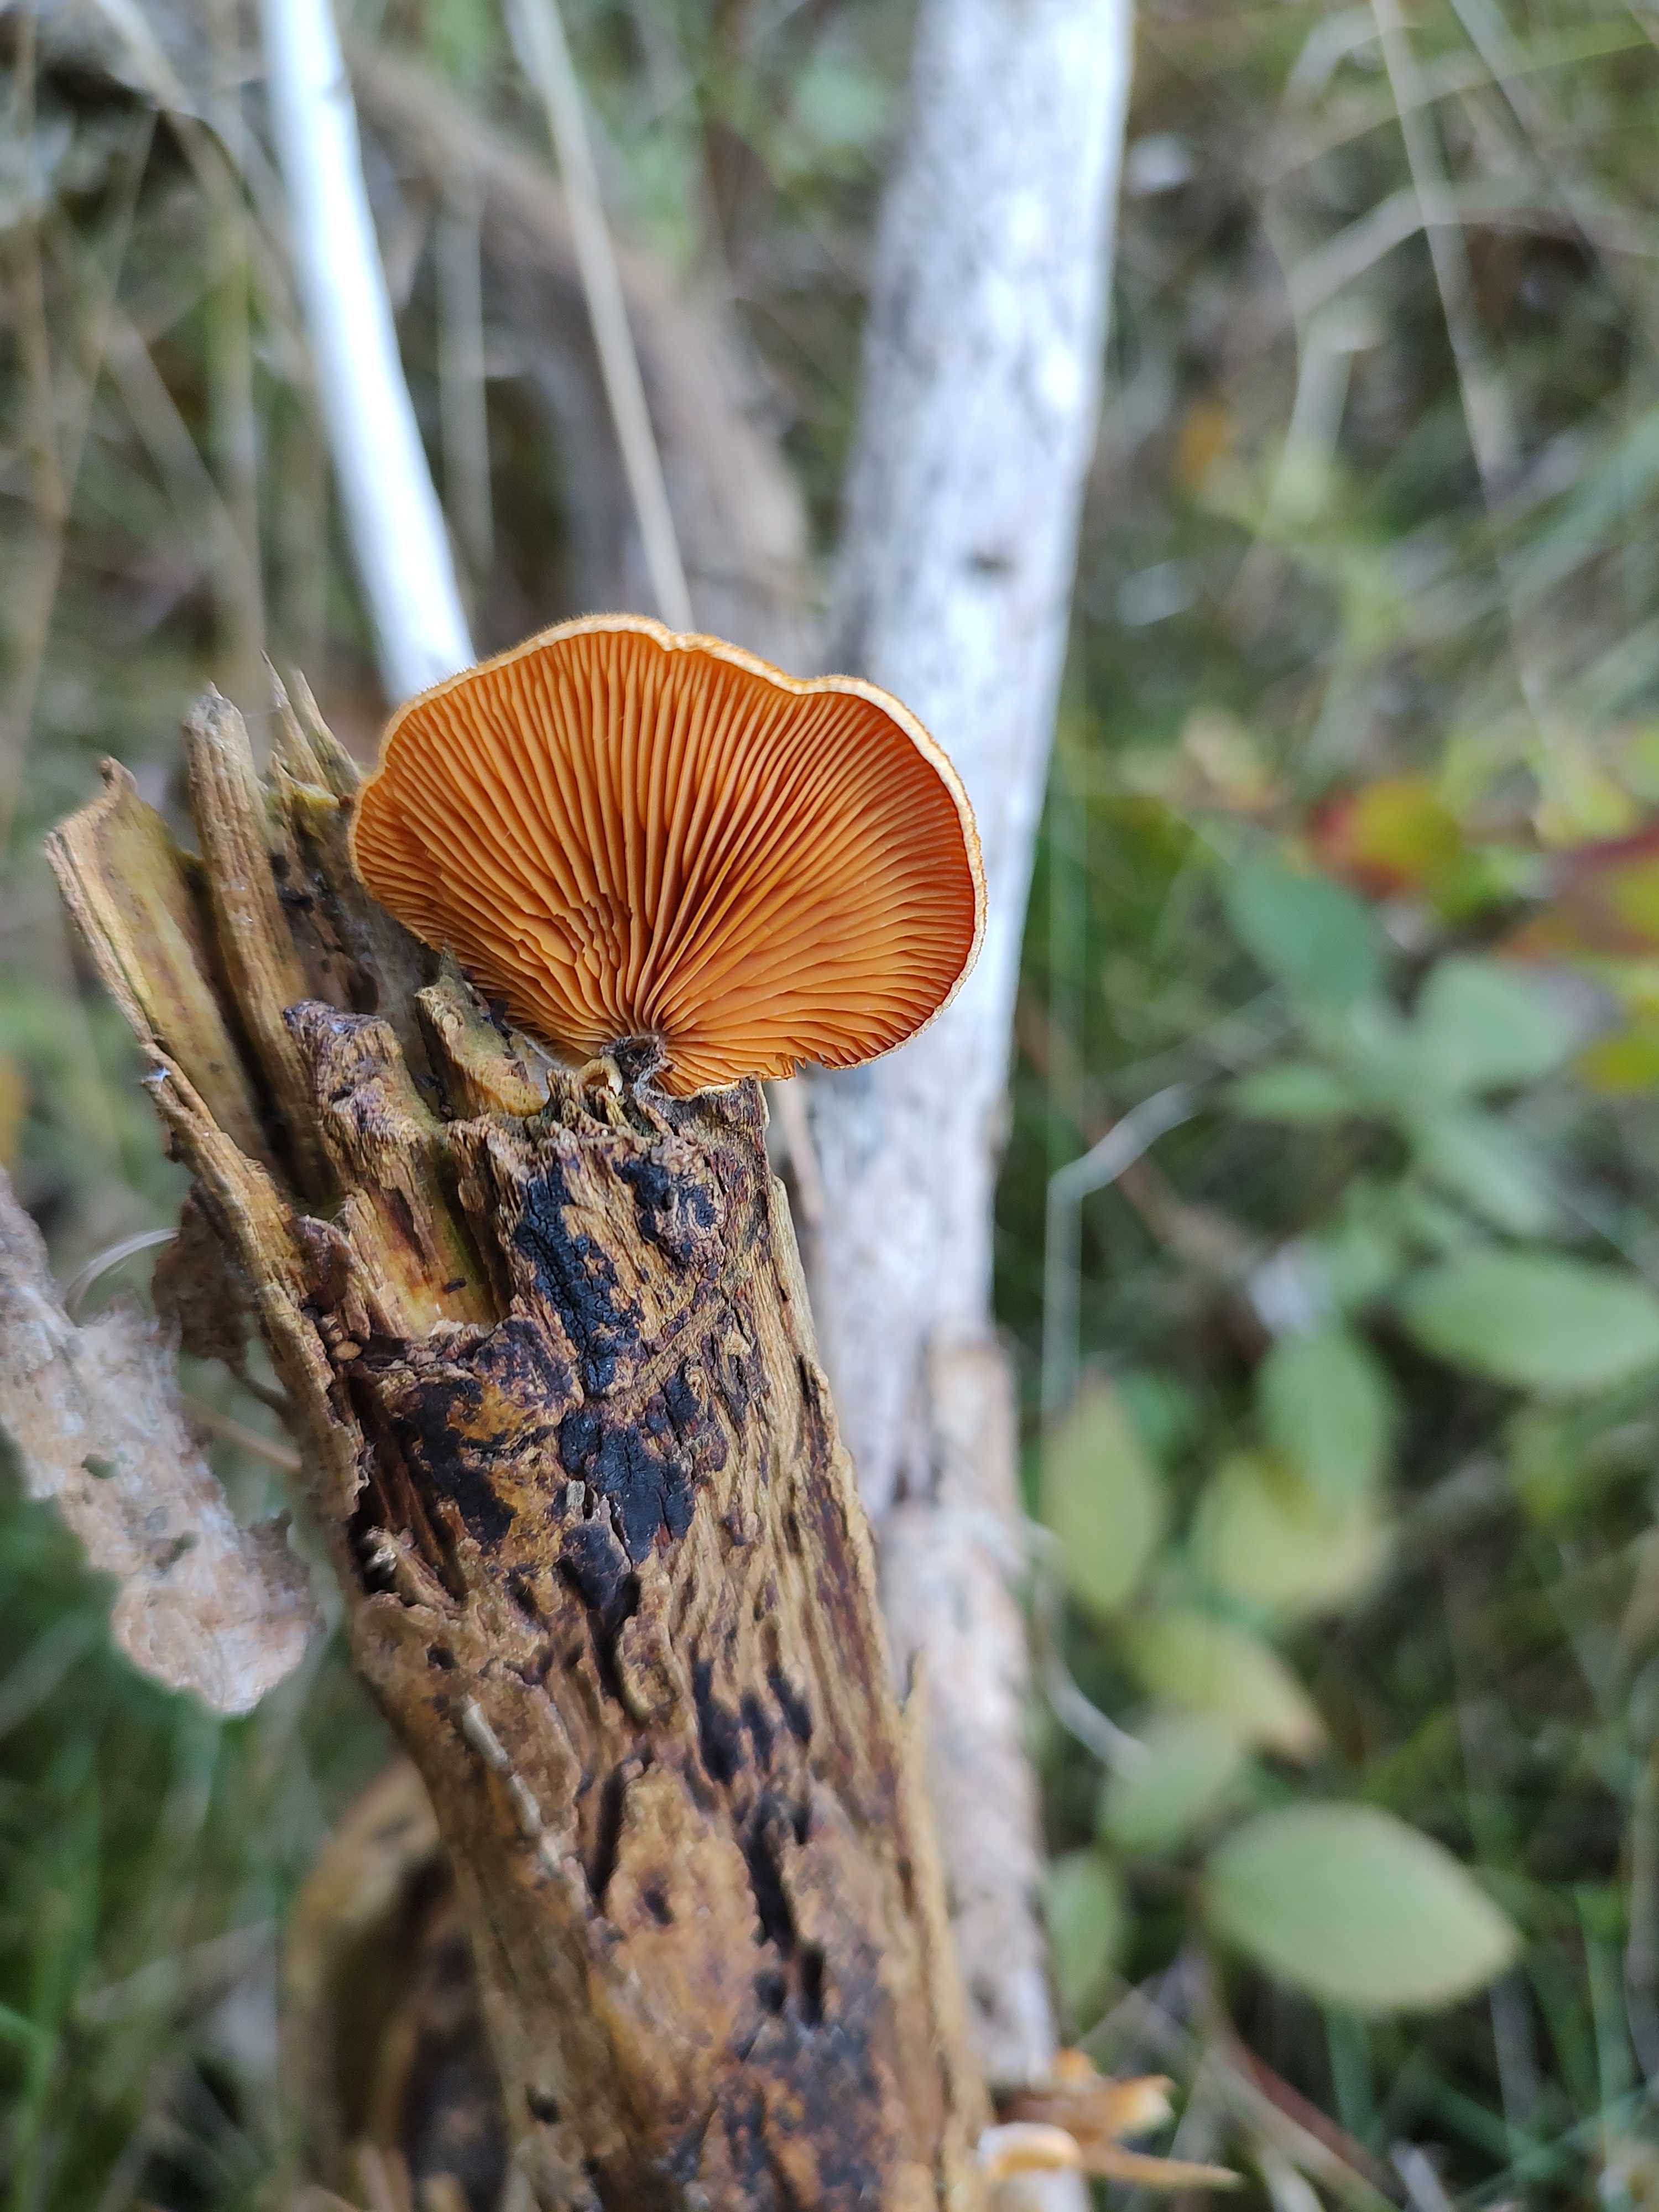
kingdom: Fungi
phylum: Basidiomycota
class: Agaricomycetes
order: Agaricales
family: Phyllotopsidaceae
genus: Phyllotopsis
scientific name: Phyllotopsis nidulans
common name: okkerblad
